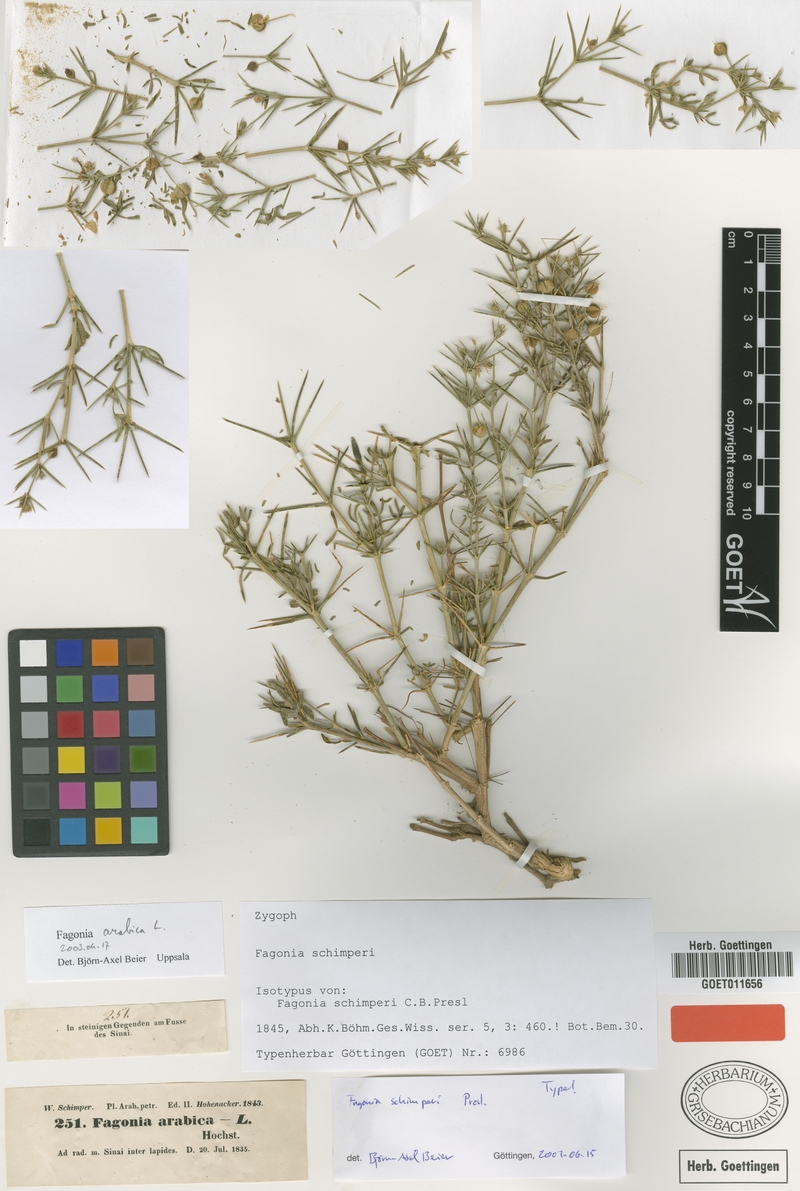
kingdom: Plantae
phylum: Tracheophyta
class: Magnoliopsida
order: Zygophyllales
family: Zygophyllaceae
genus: Fagonia
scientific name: Fagonia arabica
